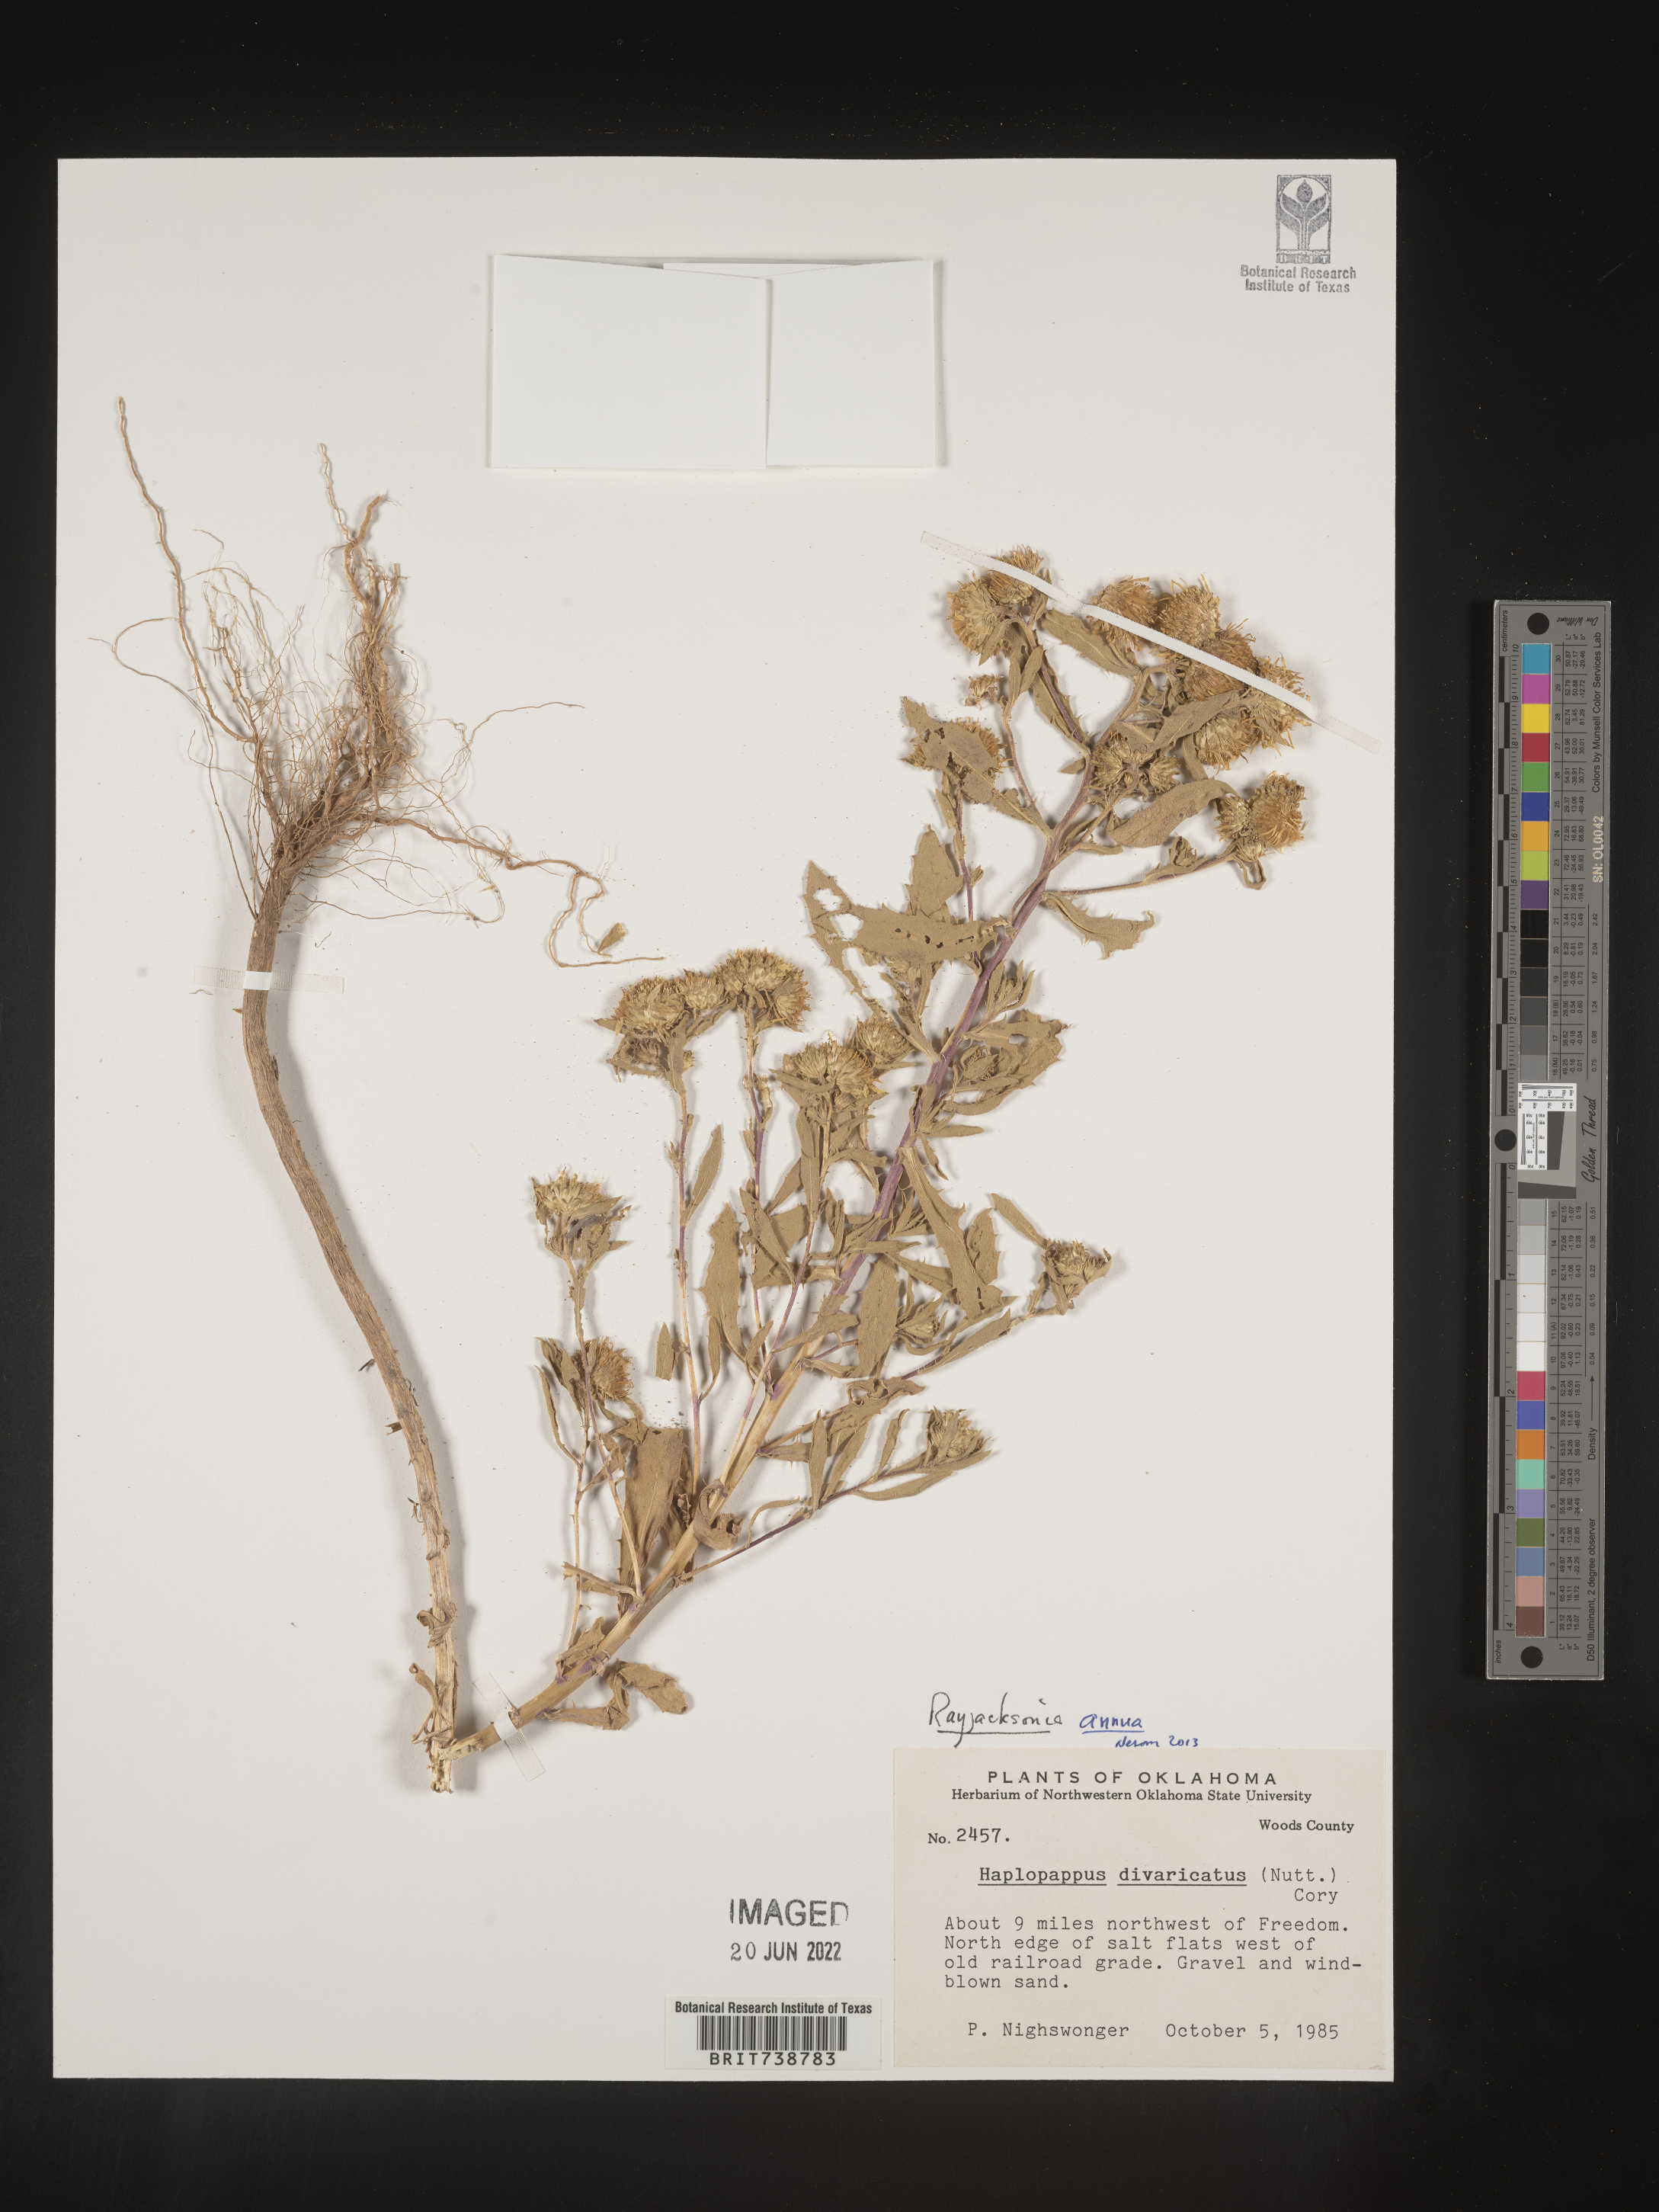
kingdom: Plantae
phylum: Tracheophyta
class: Magnoliopsida
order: Asterales
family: Asteraceae
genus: Rayjacksonia
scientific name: Rayjacksonia annua
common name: Viscid camphor daisy
